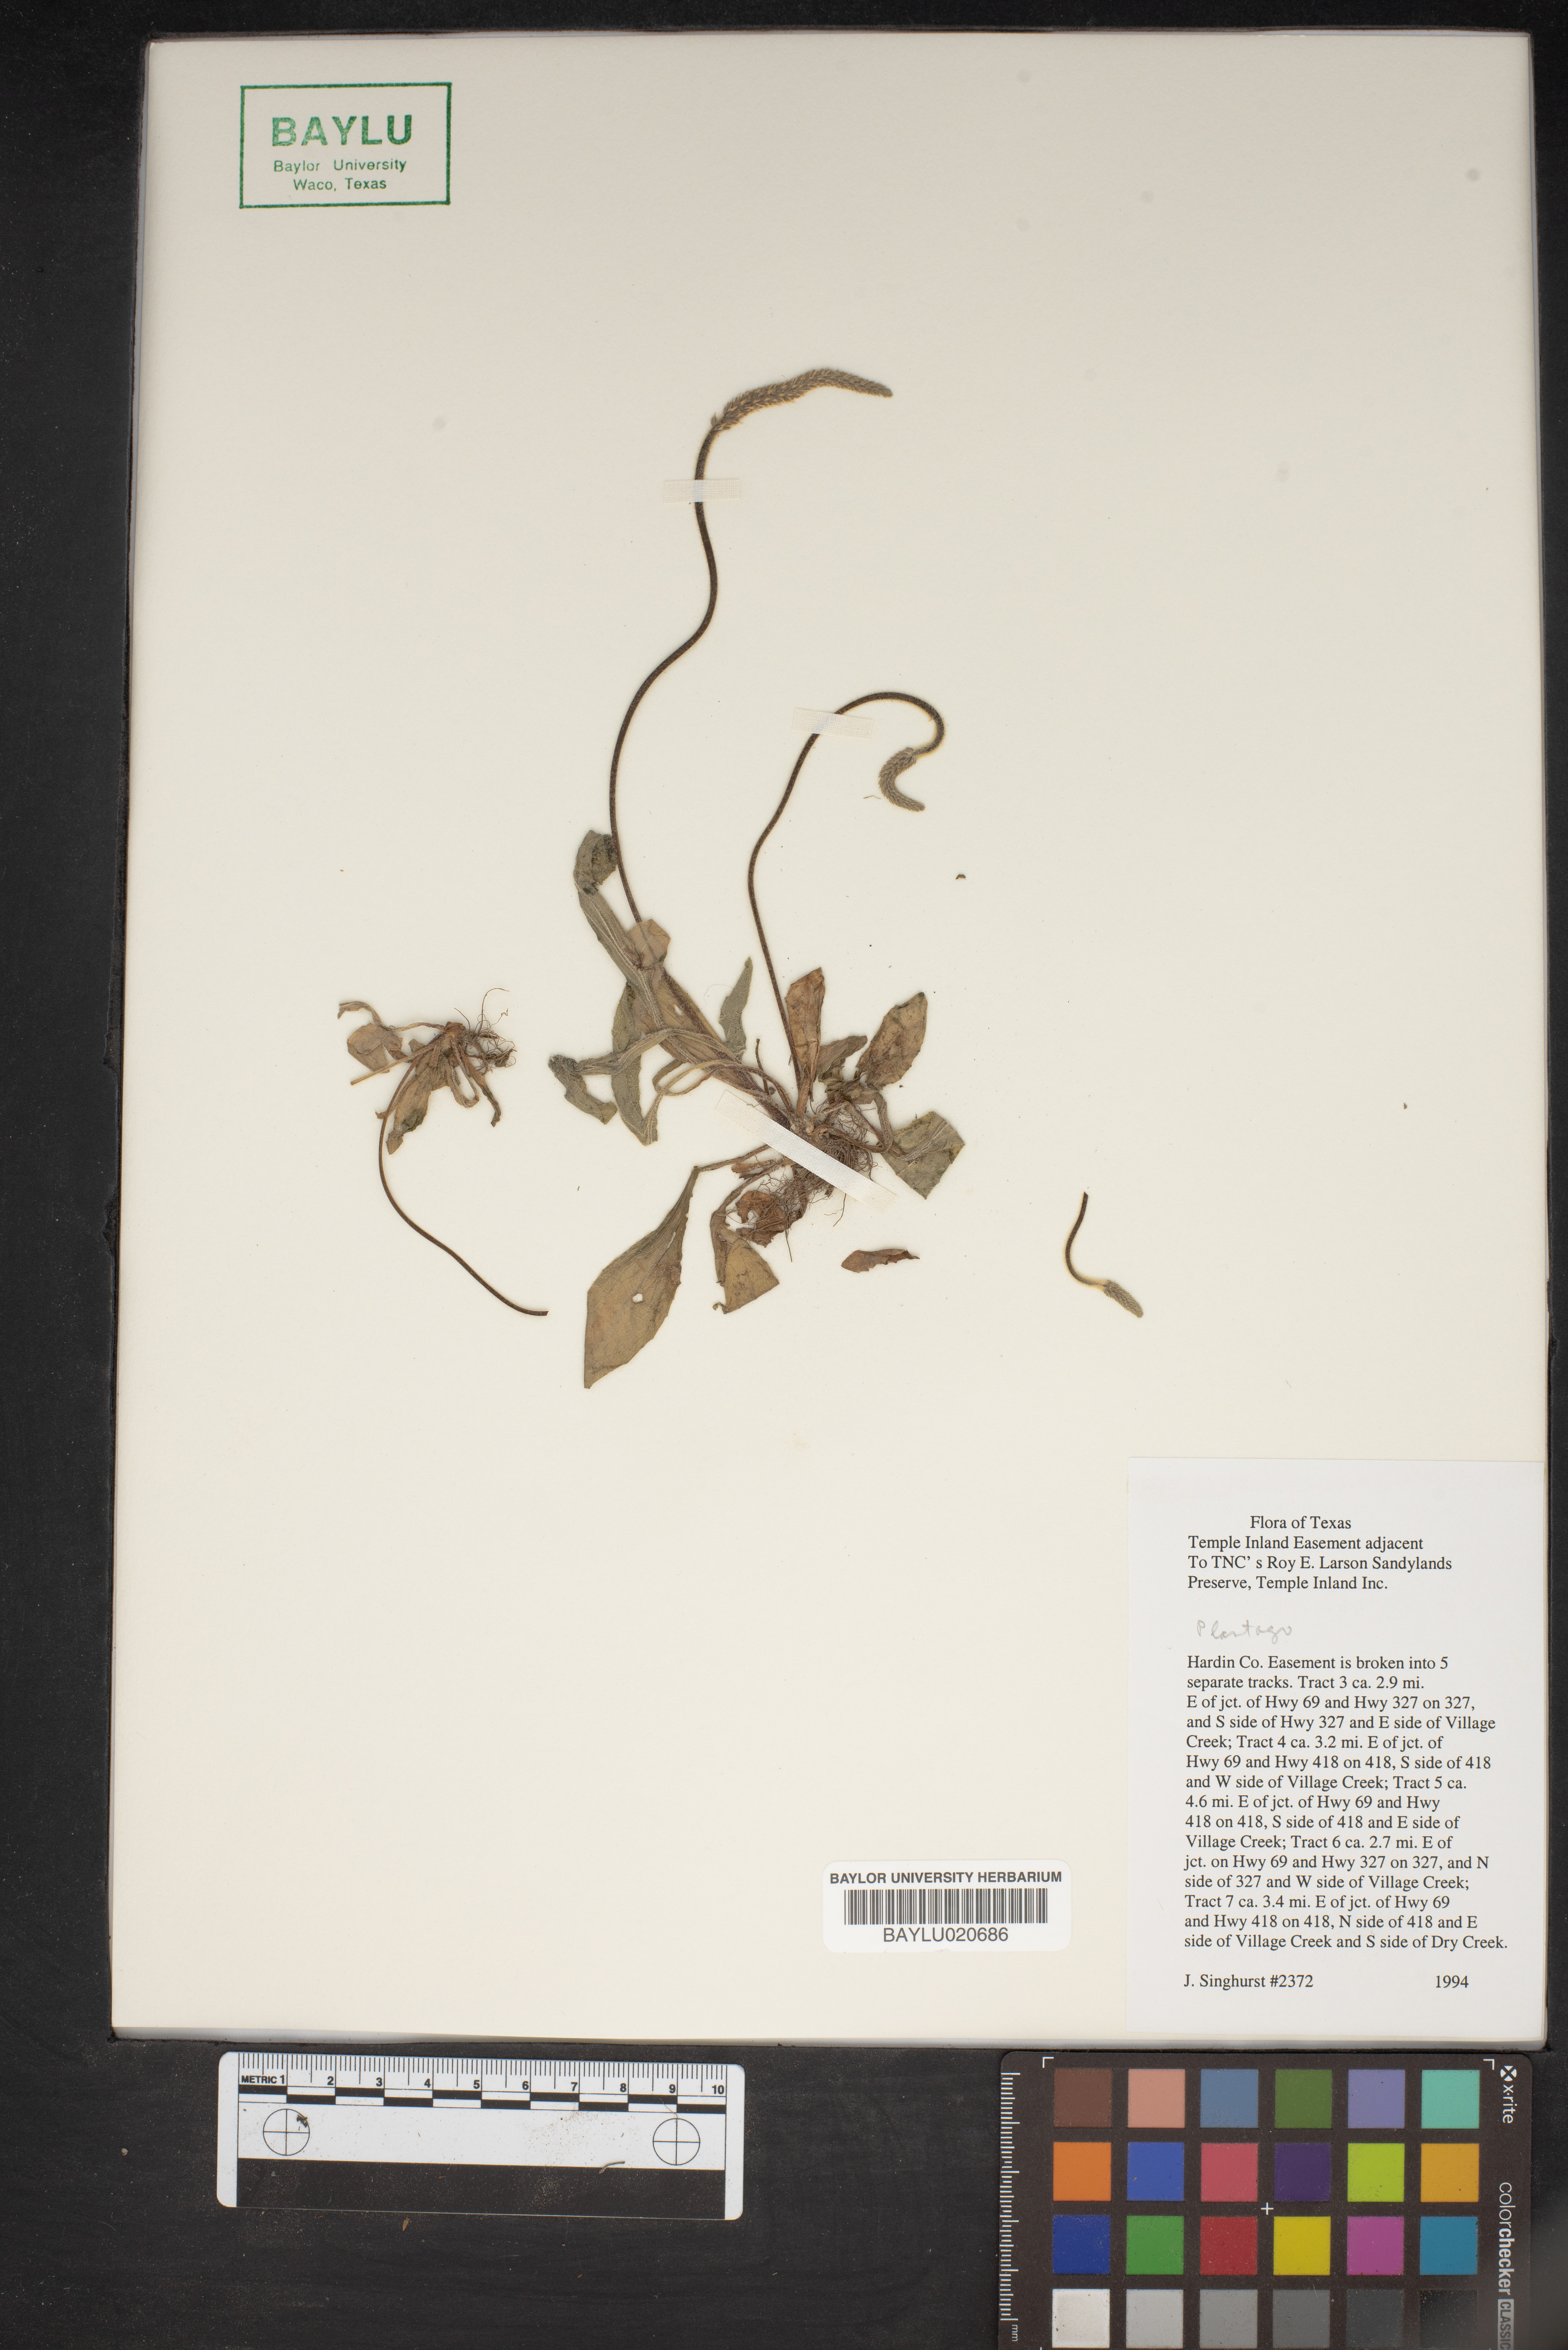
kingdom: Plantae
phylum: Tracheophyta
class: Magnoliopsida
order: Lamiales
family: Plantaginaceae
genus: Plantago
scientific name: Plantago
